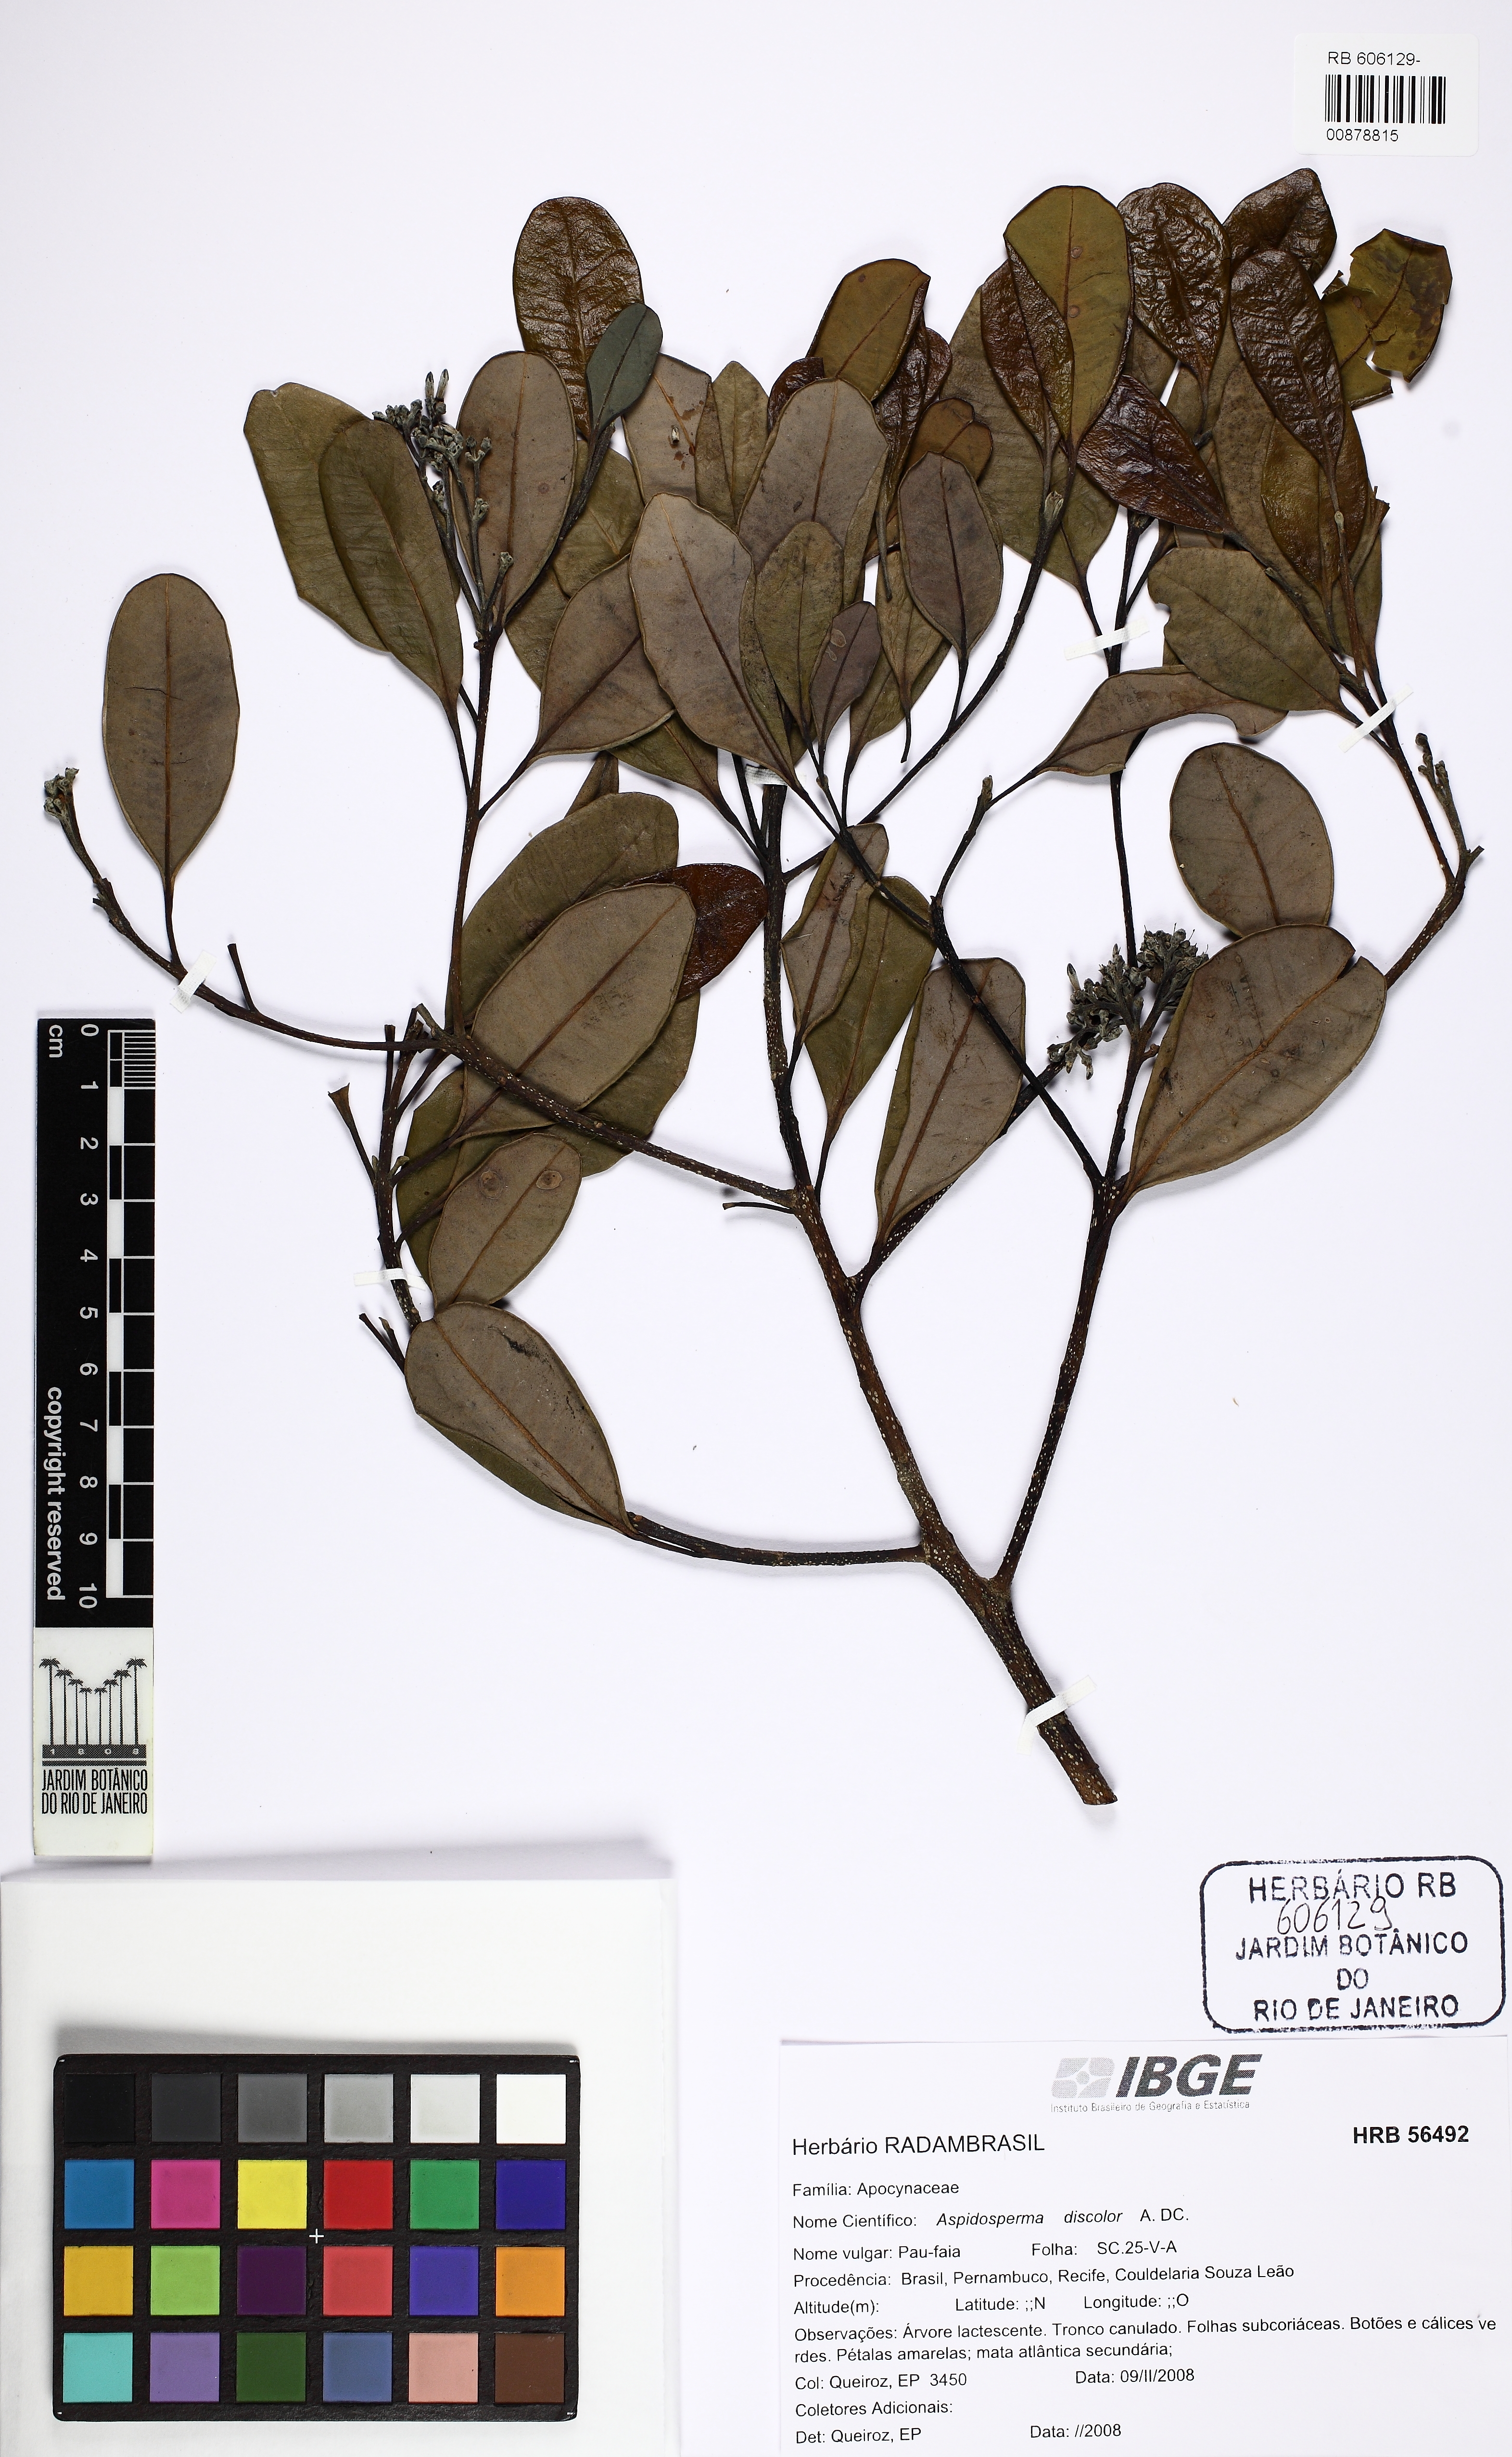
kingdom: Plantae
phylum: Tracheophyta
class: Magnoliopsida
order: Gentianales
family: Apocynaceae
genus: Aspidosperma
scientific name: Aspidosperma discolor
